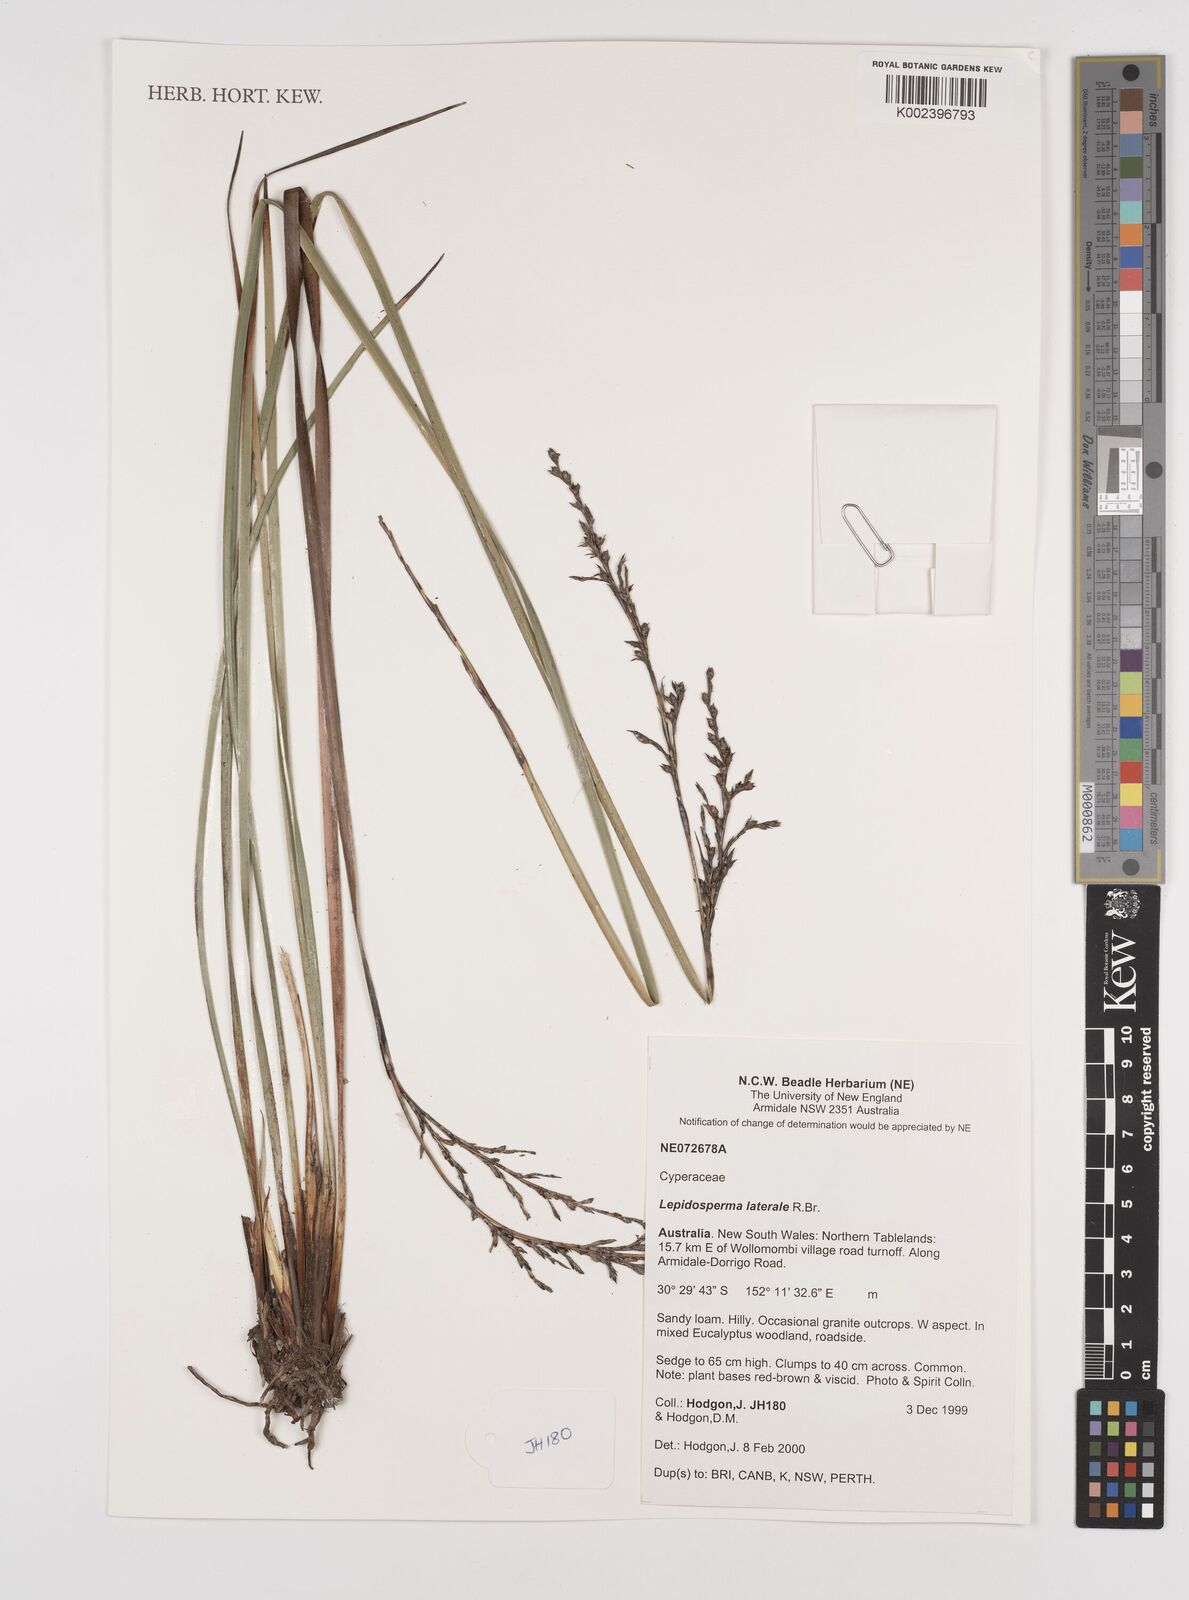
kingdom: Plantae
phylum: Tracheophyta
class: Liliopsida
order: Poales
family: Cyperaceae
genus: Lepidosperma
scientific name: Lepidosperma laterale
